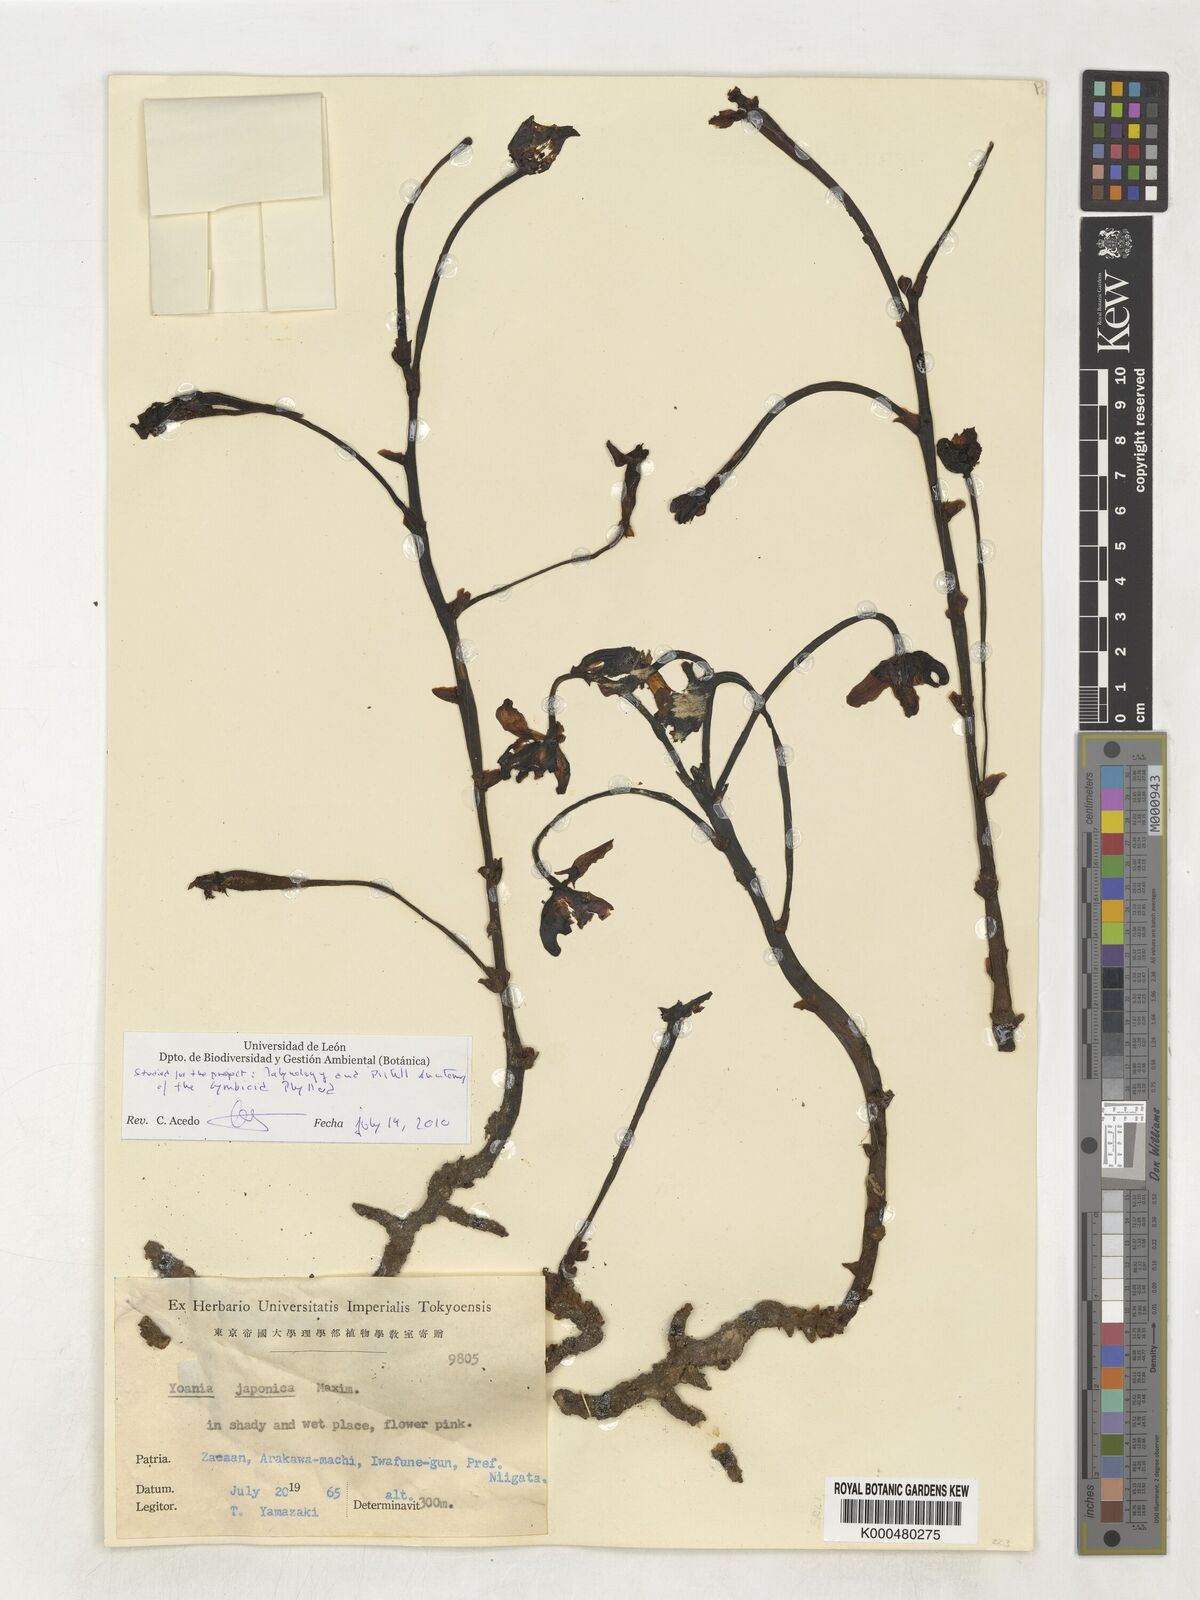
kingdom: Plantae
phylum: Tracheophyta
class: Liliopsida
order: Asparagales
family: Orchidaceae
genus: Yoania
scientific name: Yoania japonica
